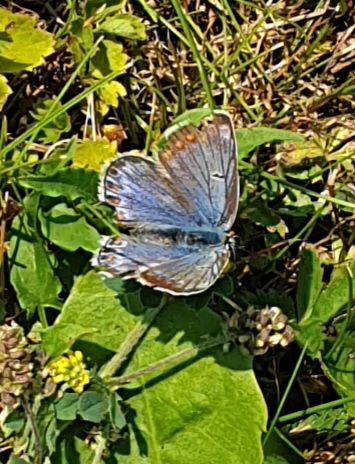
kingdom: Animalia
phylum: Arthropoda
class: Insecta
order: Lepidoptera
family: Lycaenidae
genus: Polyommatus
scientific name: Polyommatus icarus
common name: Almindelig blåfugl
